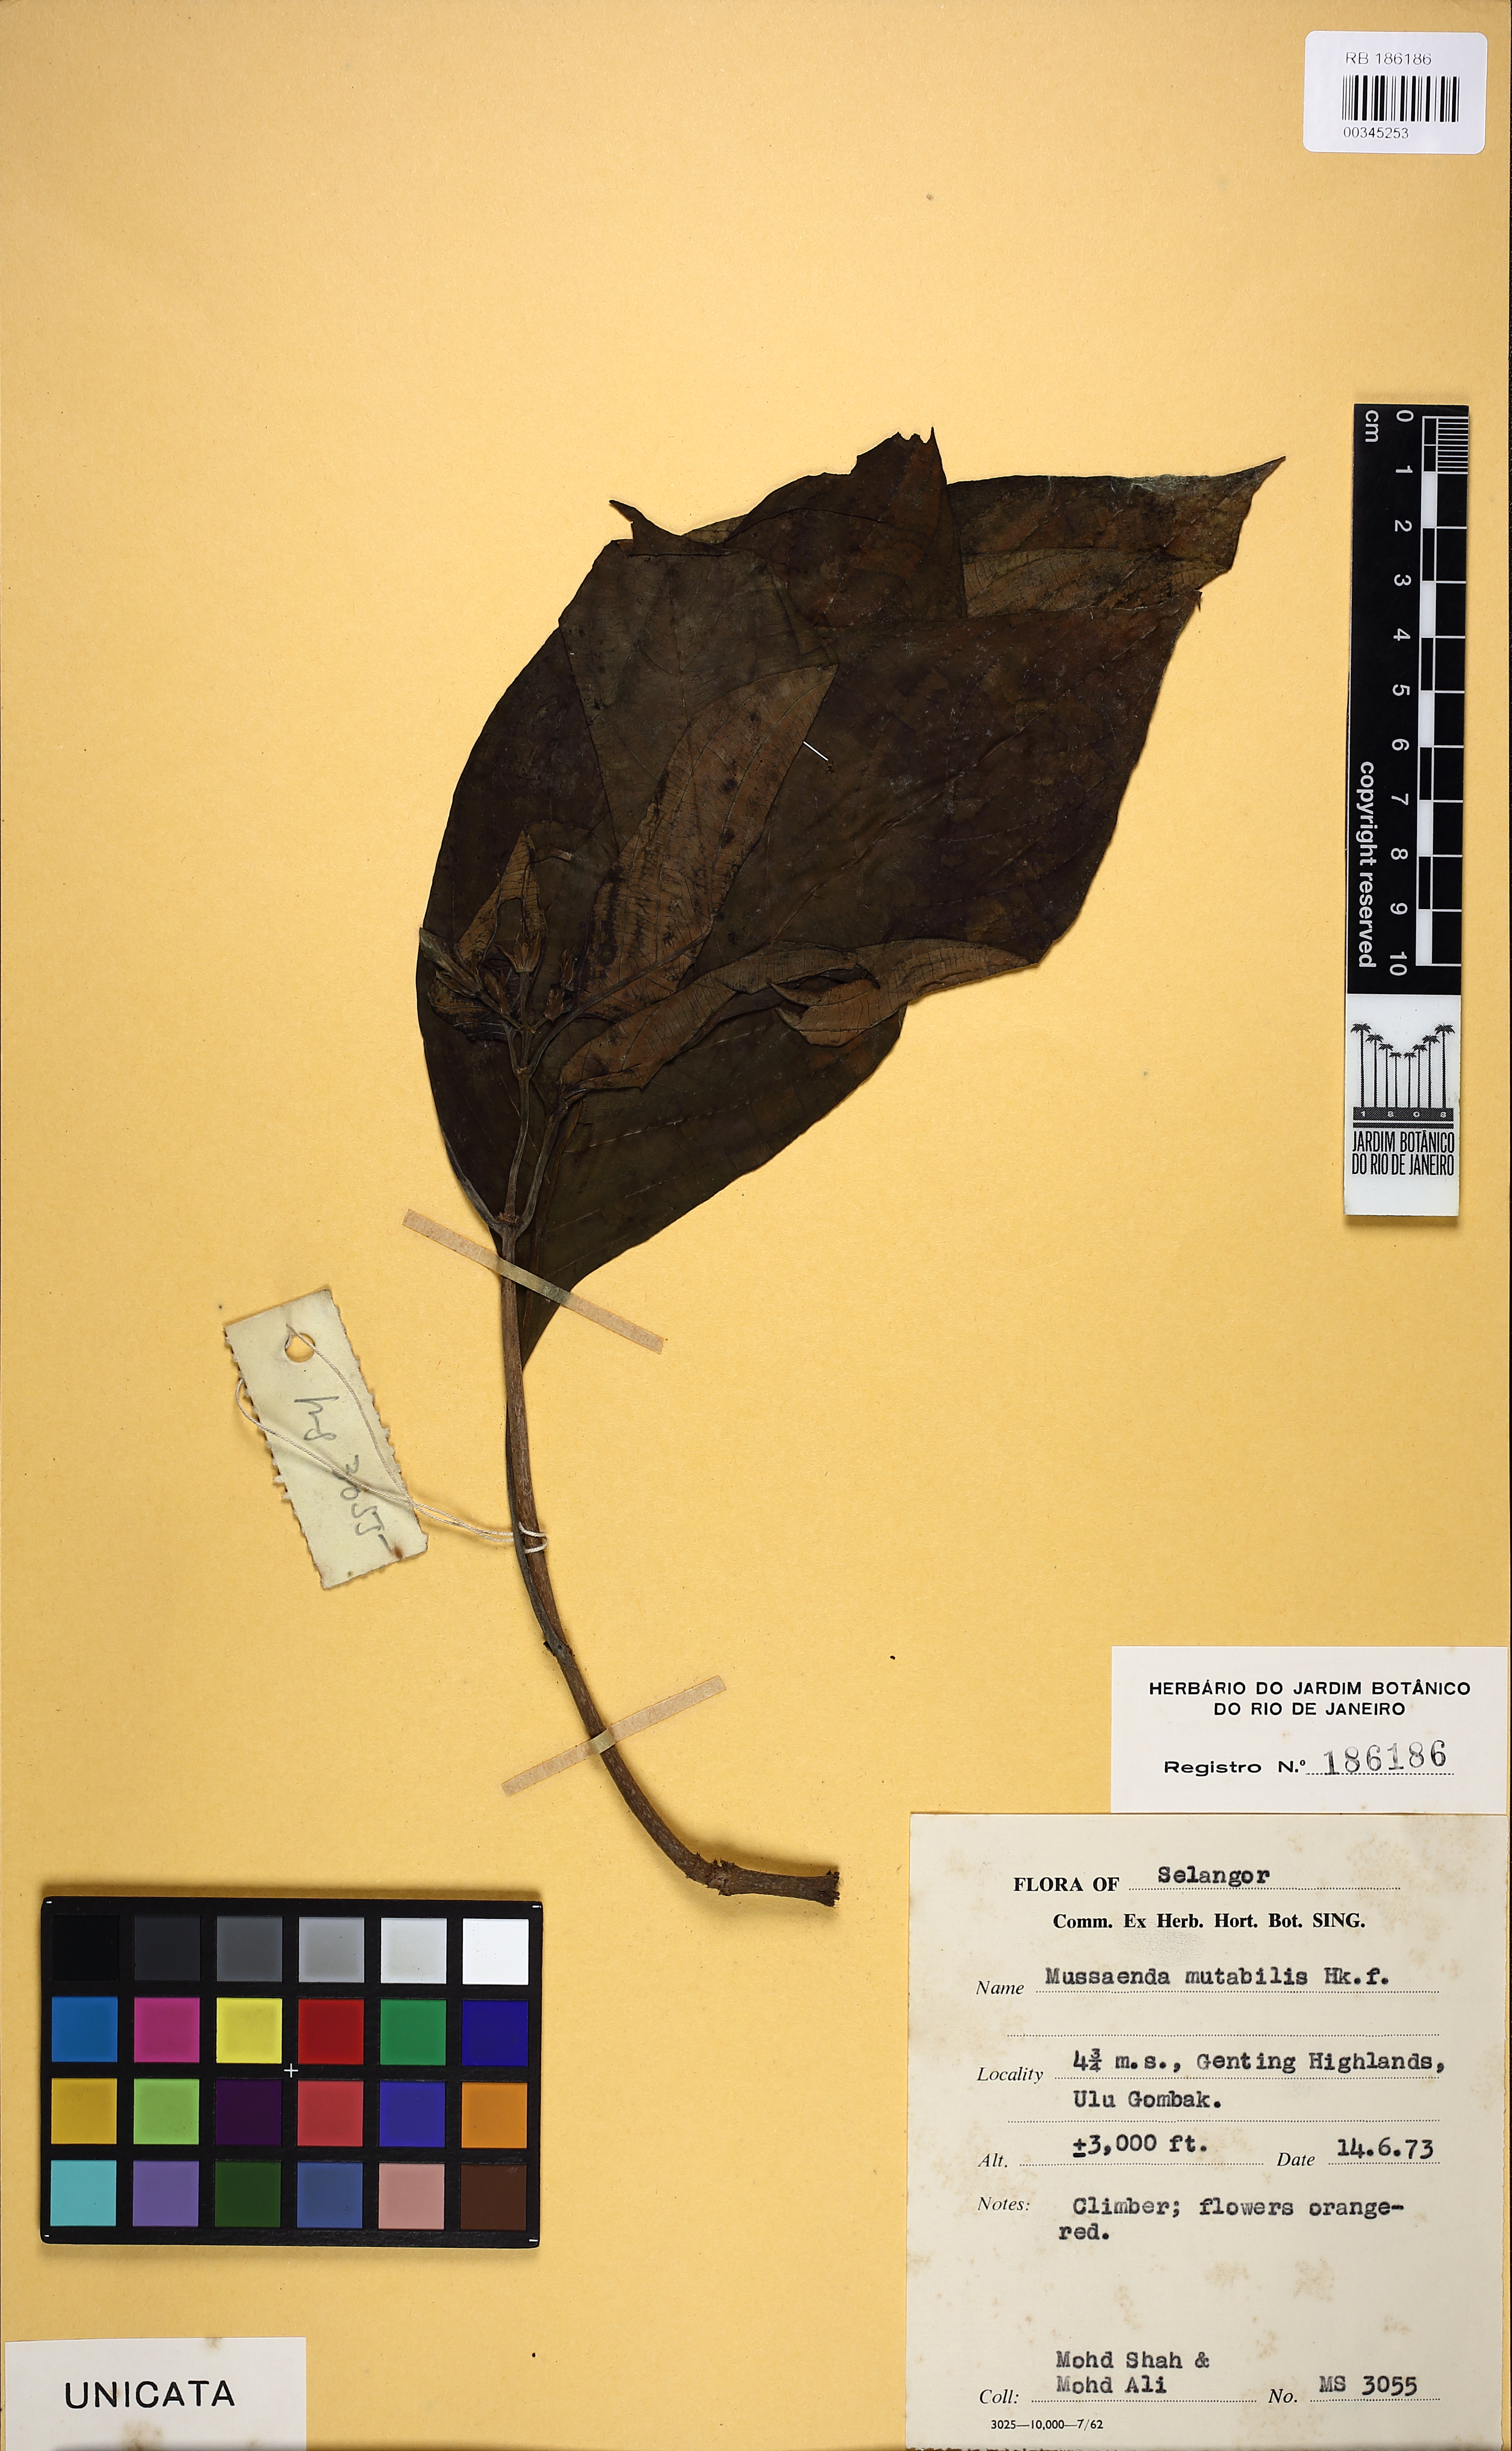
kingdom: Plantae
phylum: Tracheophyta
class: Magnoliopsida
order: Gentianales
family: Rubiaceae
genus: Mussaenda
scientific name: Mussaenda maingayi
